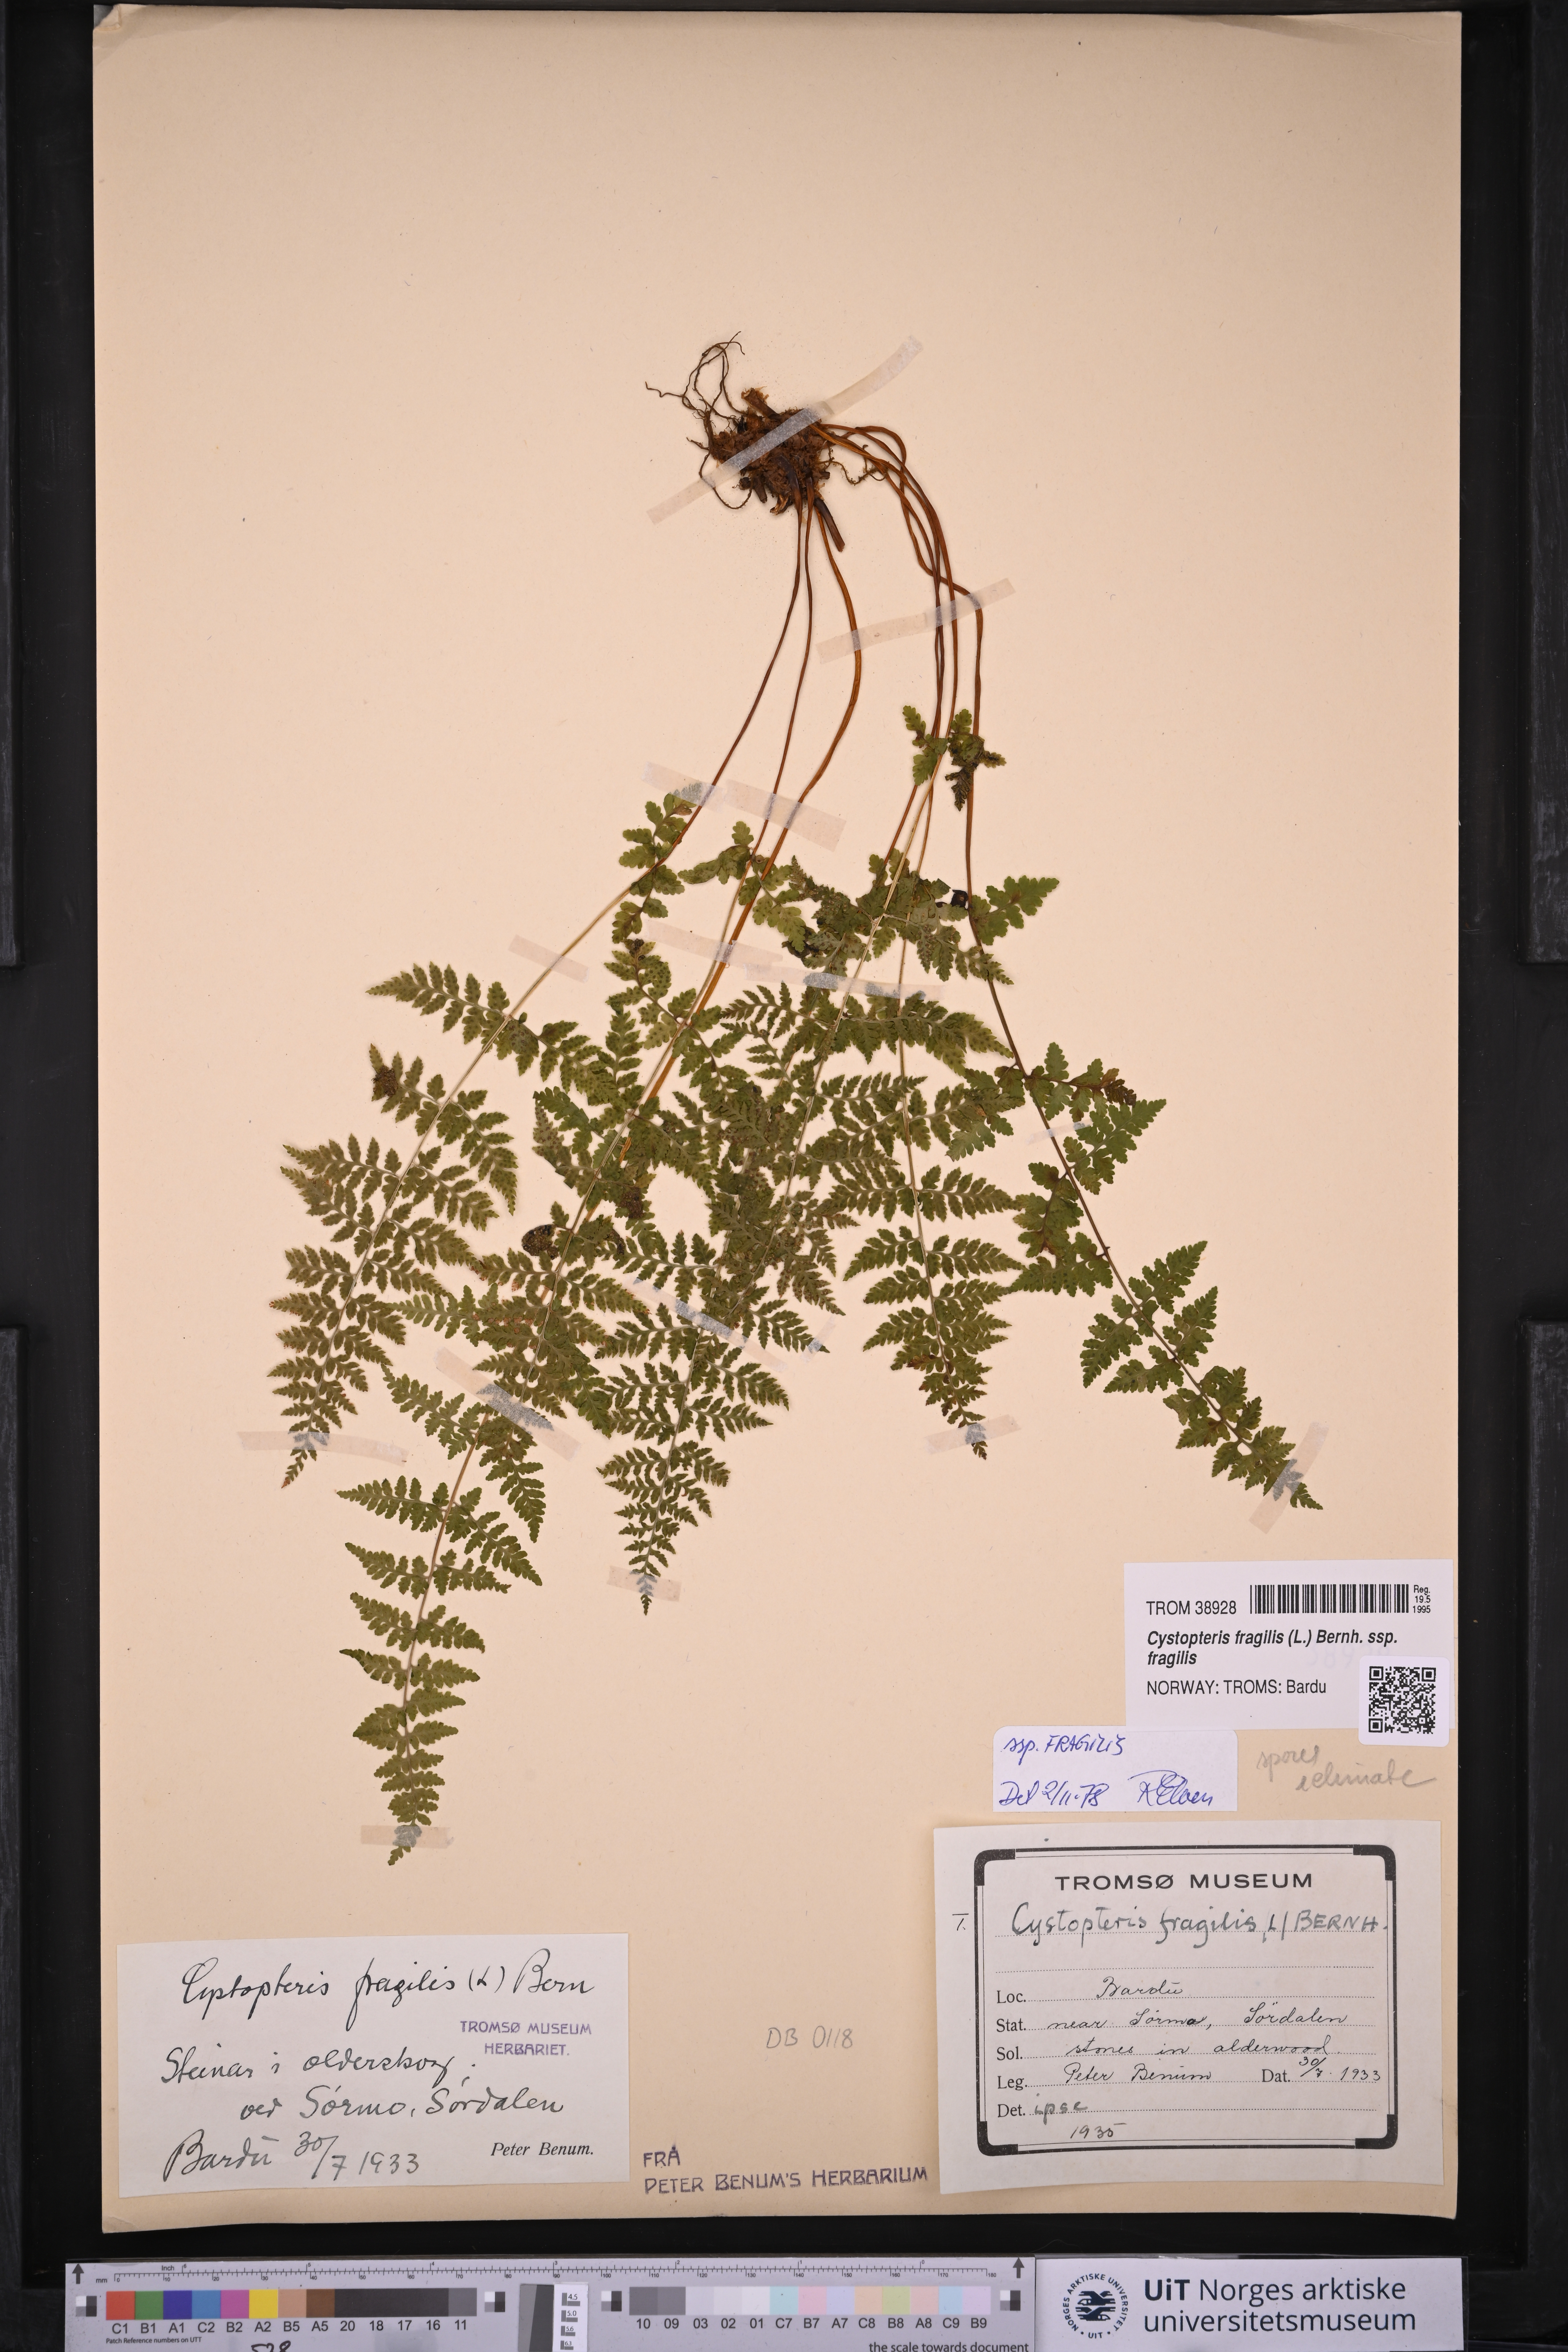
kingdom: Plantae
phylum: Tracheophyta
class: Polypodiopsida
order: Polypodiales
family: Cystopteridaceae
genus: Cystopteris
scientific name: Cystopteris fragilis
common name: Brittle bladder fern
